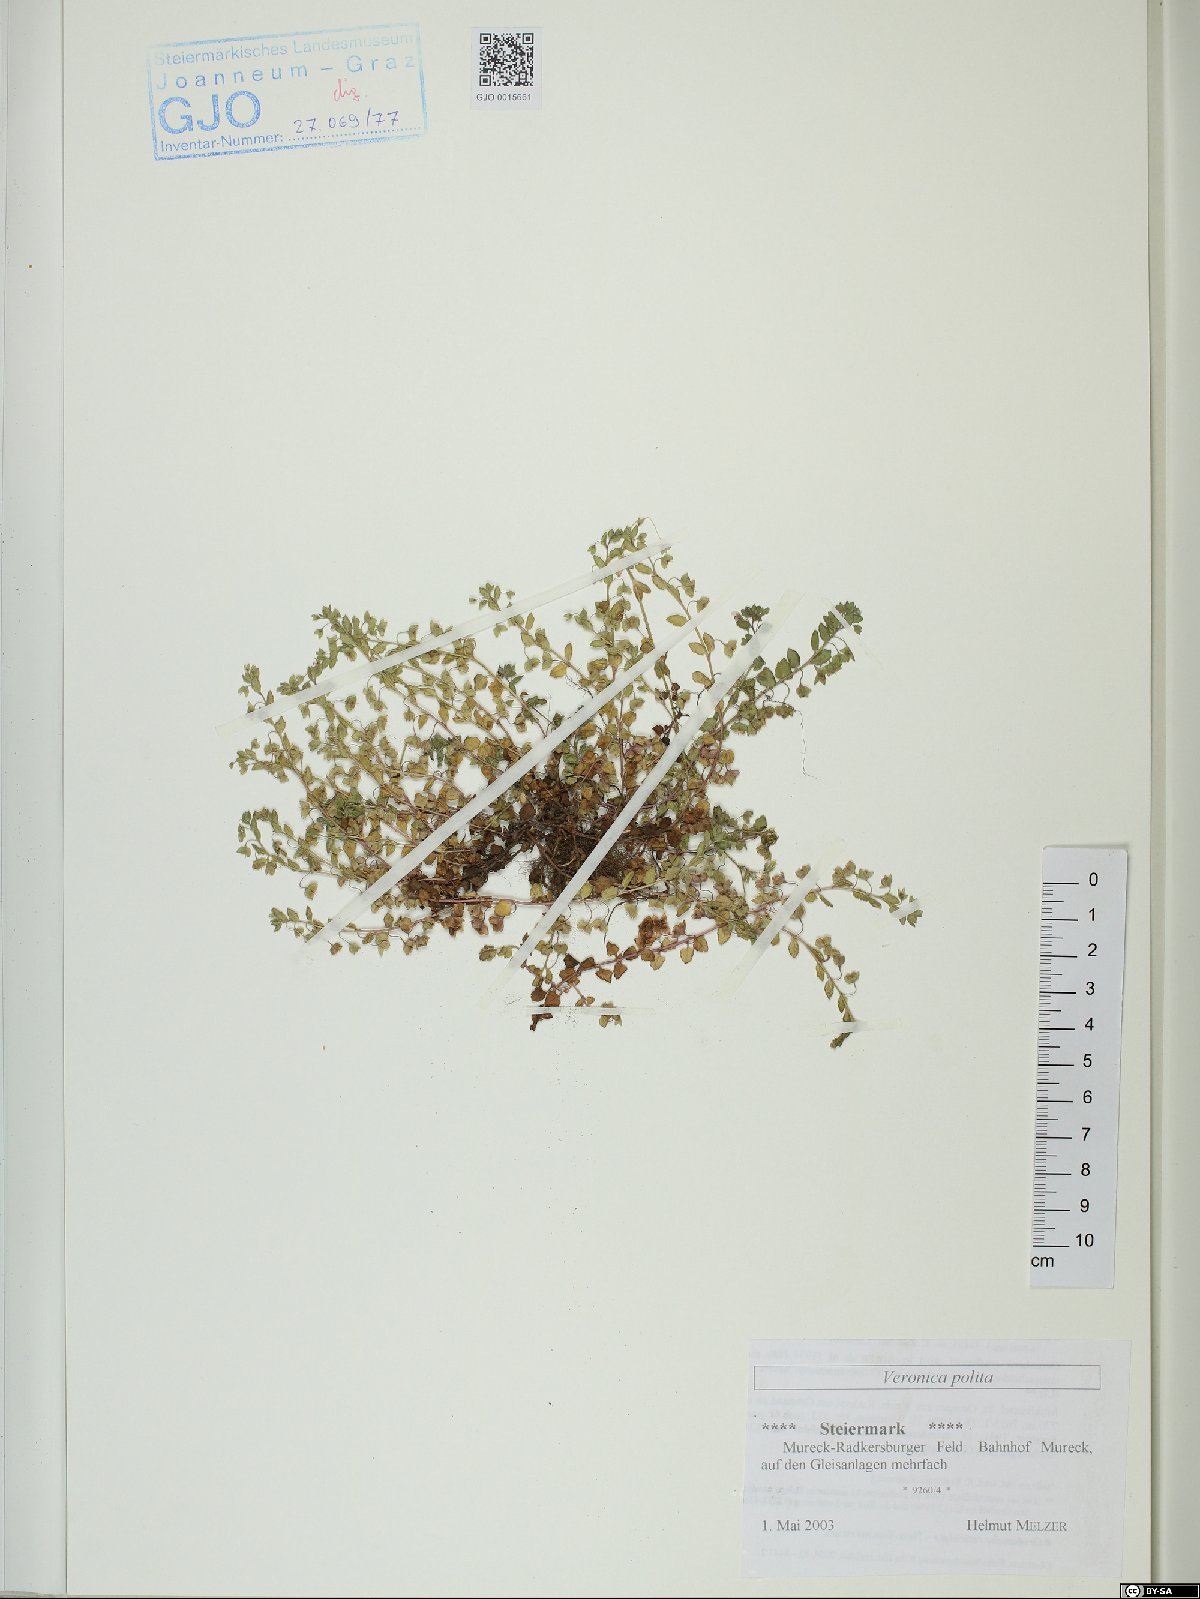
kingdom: Plantae
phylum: Tracheophyta
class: Magnoliopsida
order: Lamiales
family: Plantaginaceae
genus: Veronica
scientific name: Veronica polita
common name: Grey field-speedwell
